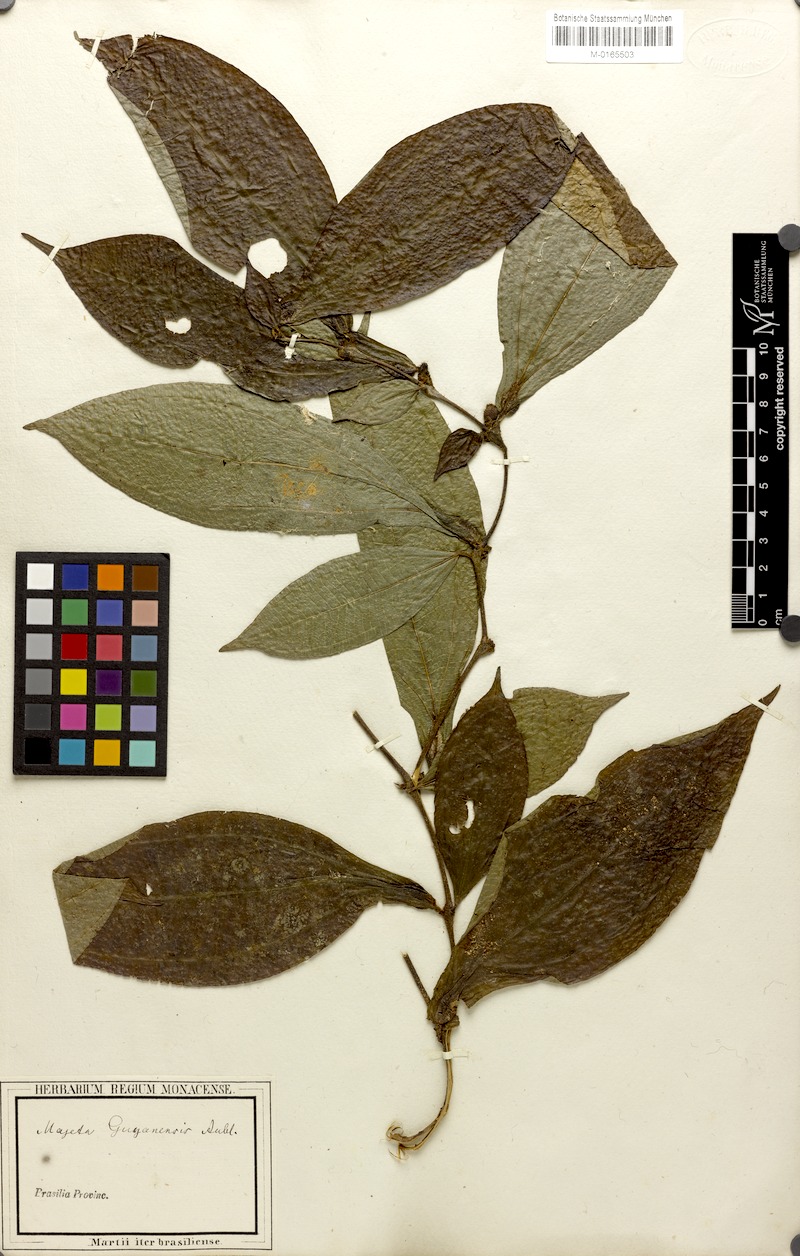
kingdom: Plantae
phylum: Tracheophyta
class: Magnoliopsida
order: Myrtales
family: Melastomataceae
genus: Miconia
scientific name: Miconia mayeta
